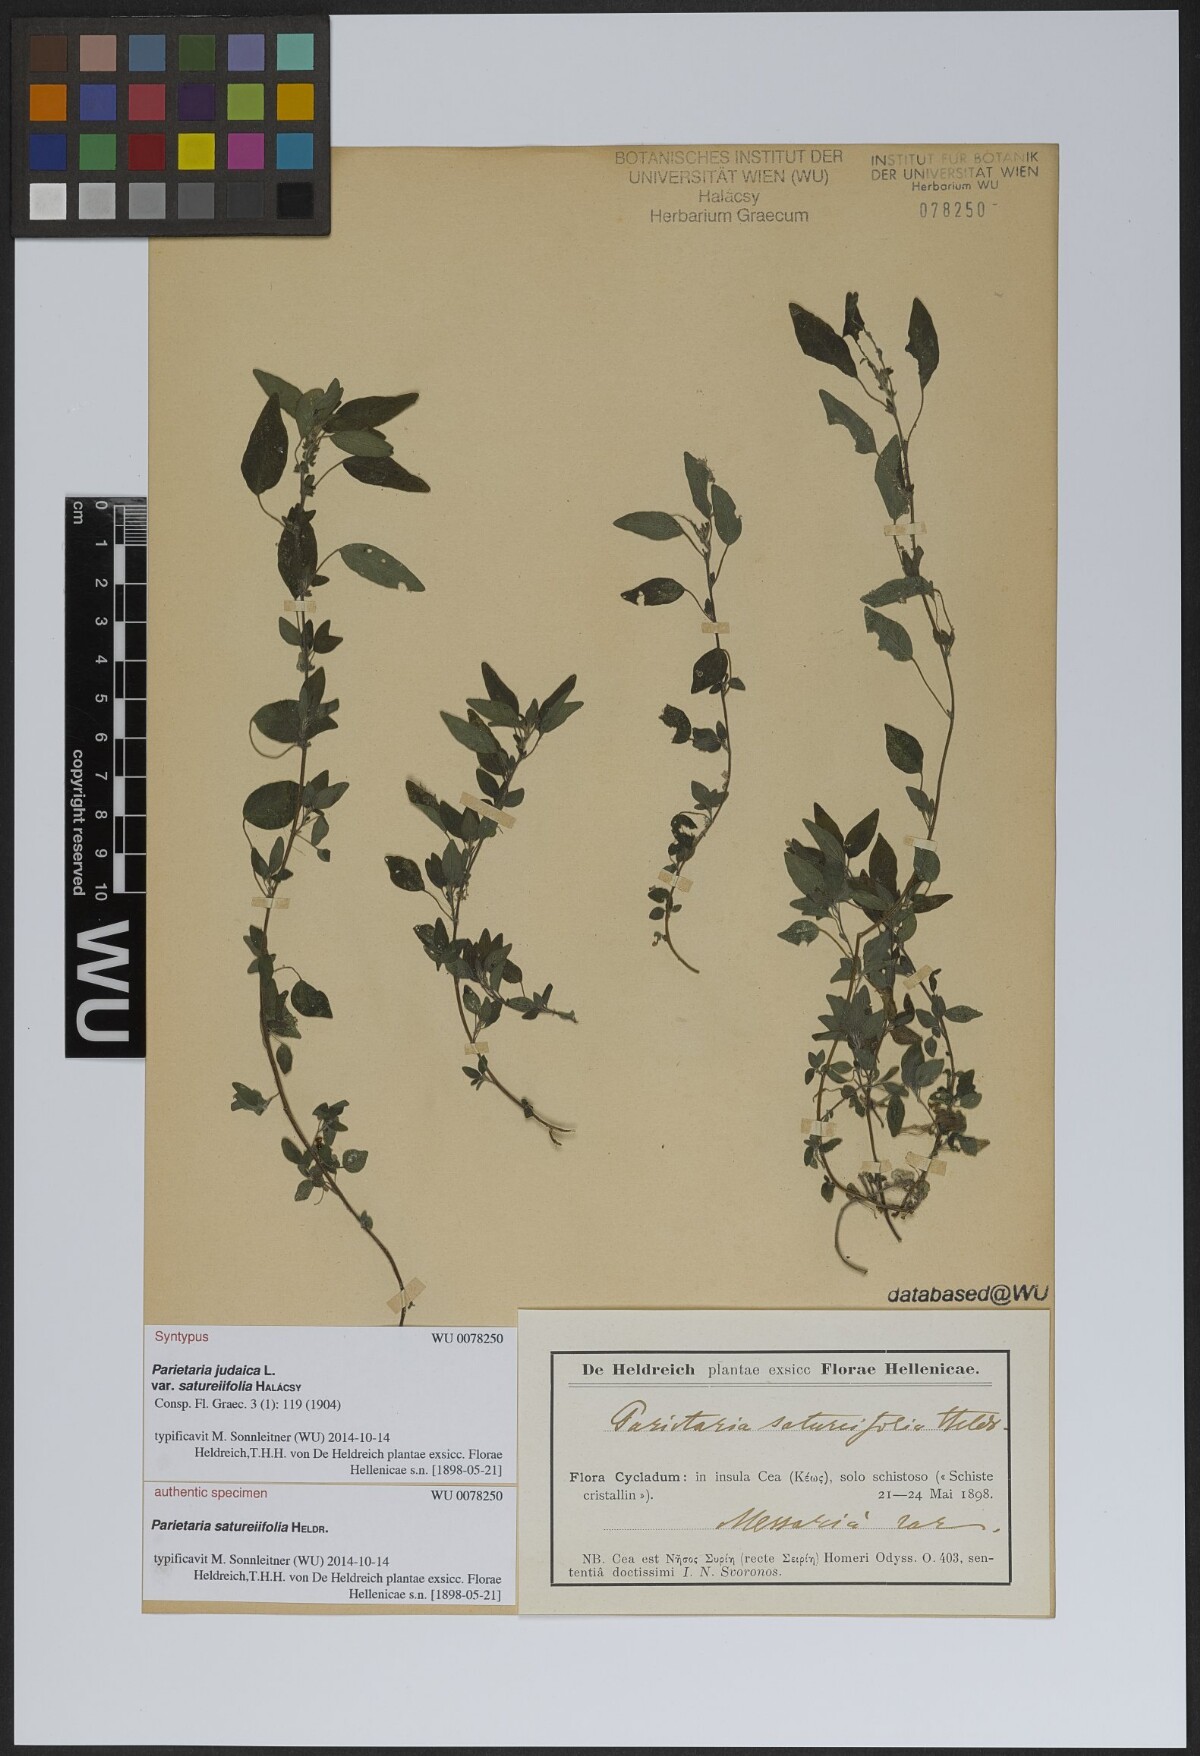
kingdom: Plantae
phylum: Tracheophyta
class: Magnoliopsida
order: Rosales
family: Urticaceae
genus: Parietaria
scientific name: Parietaria judaica
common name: Pellitory-of-the-wall
